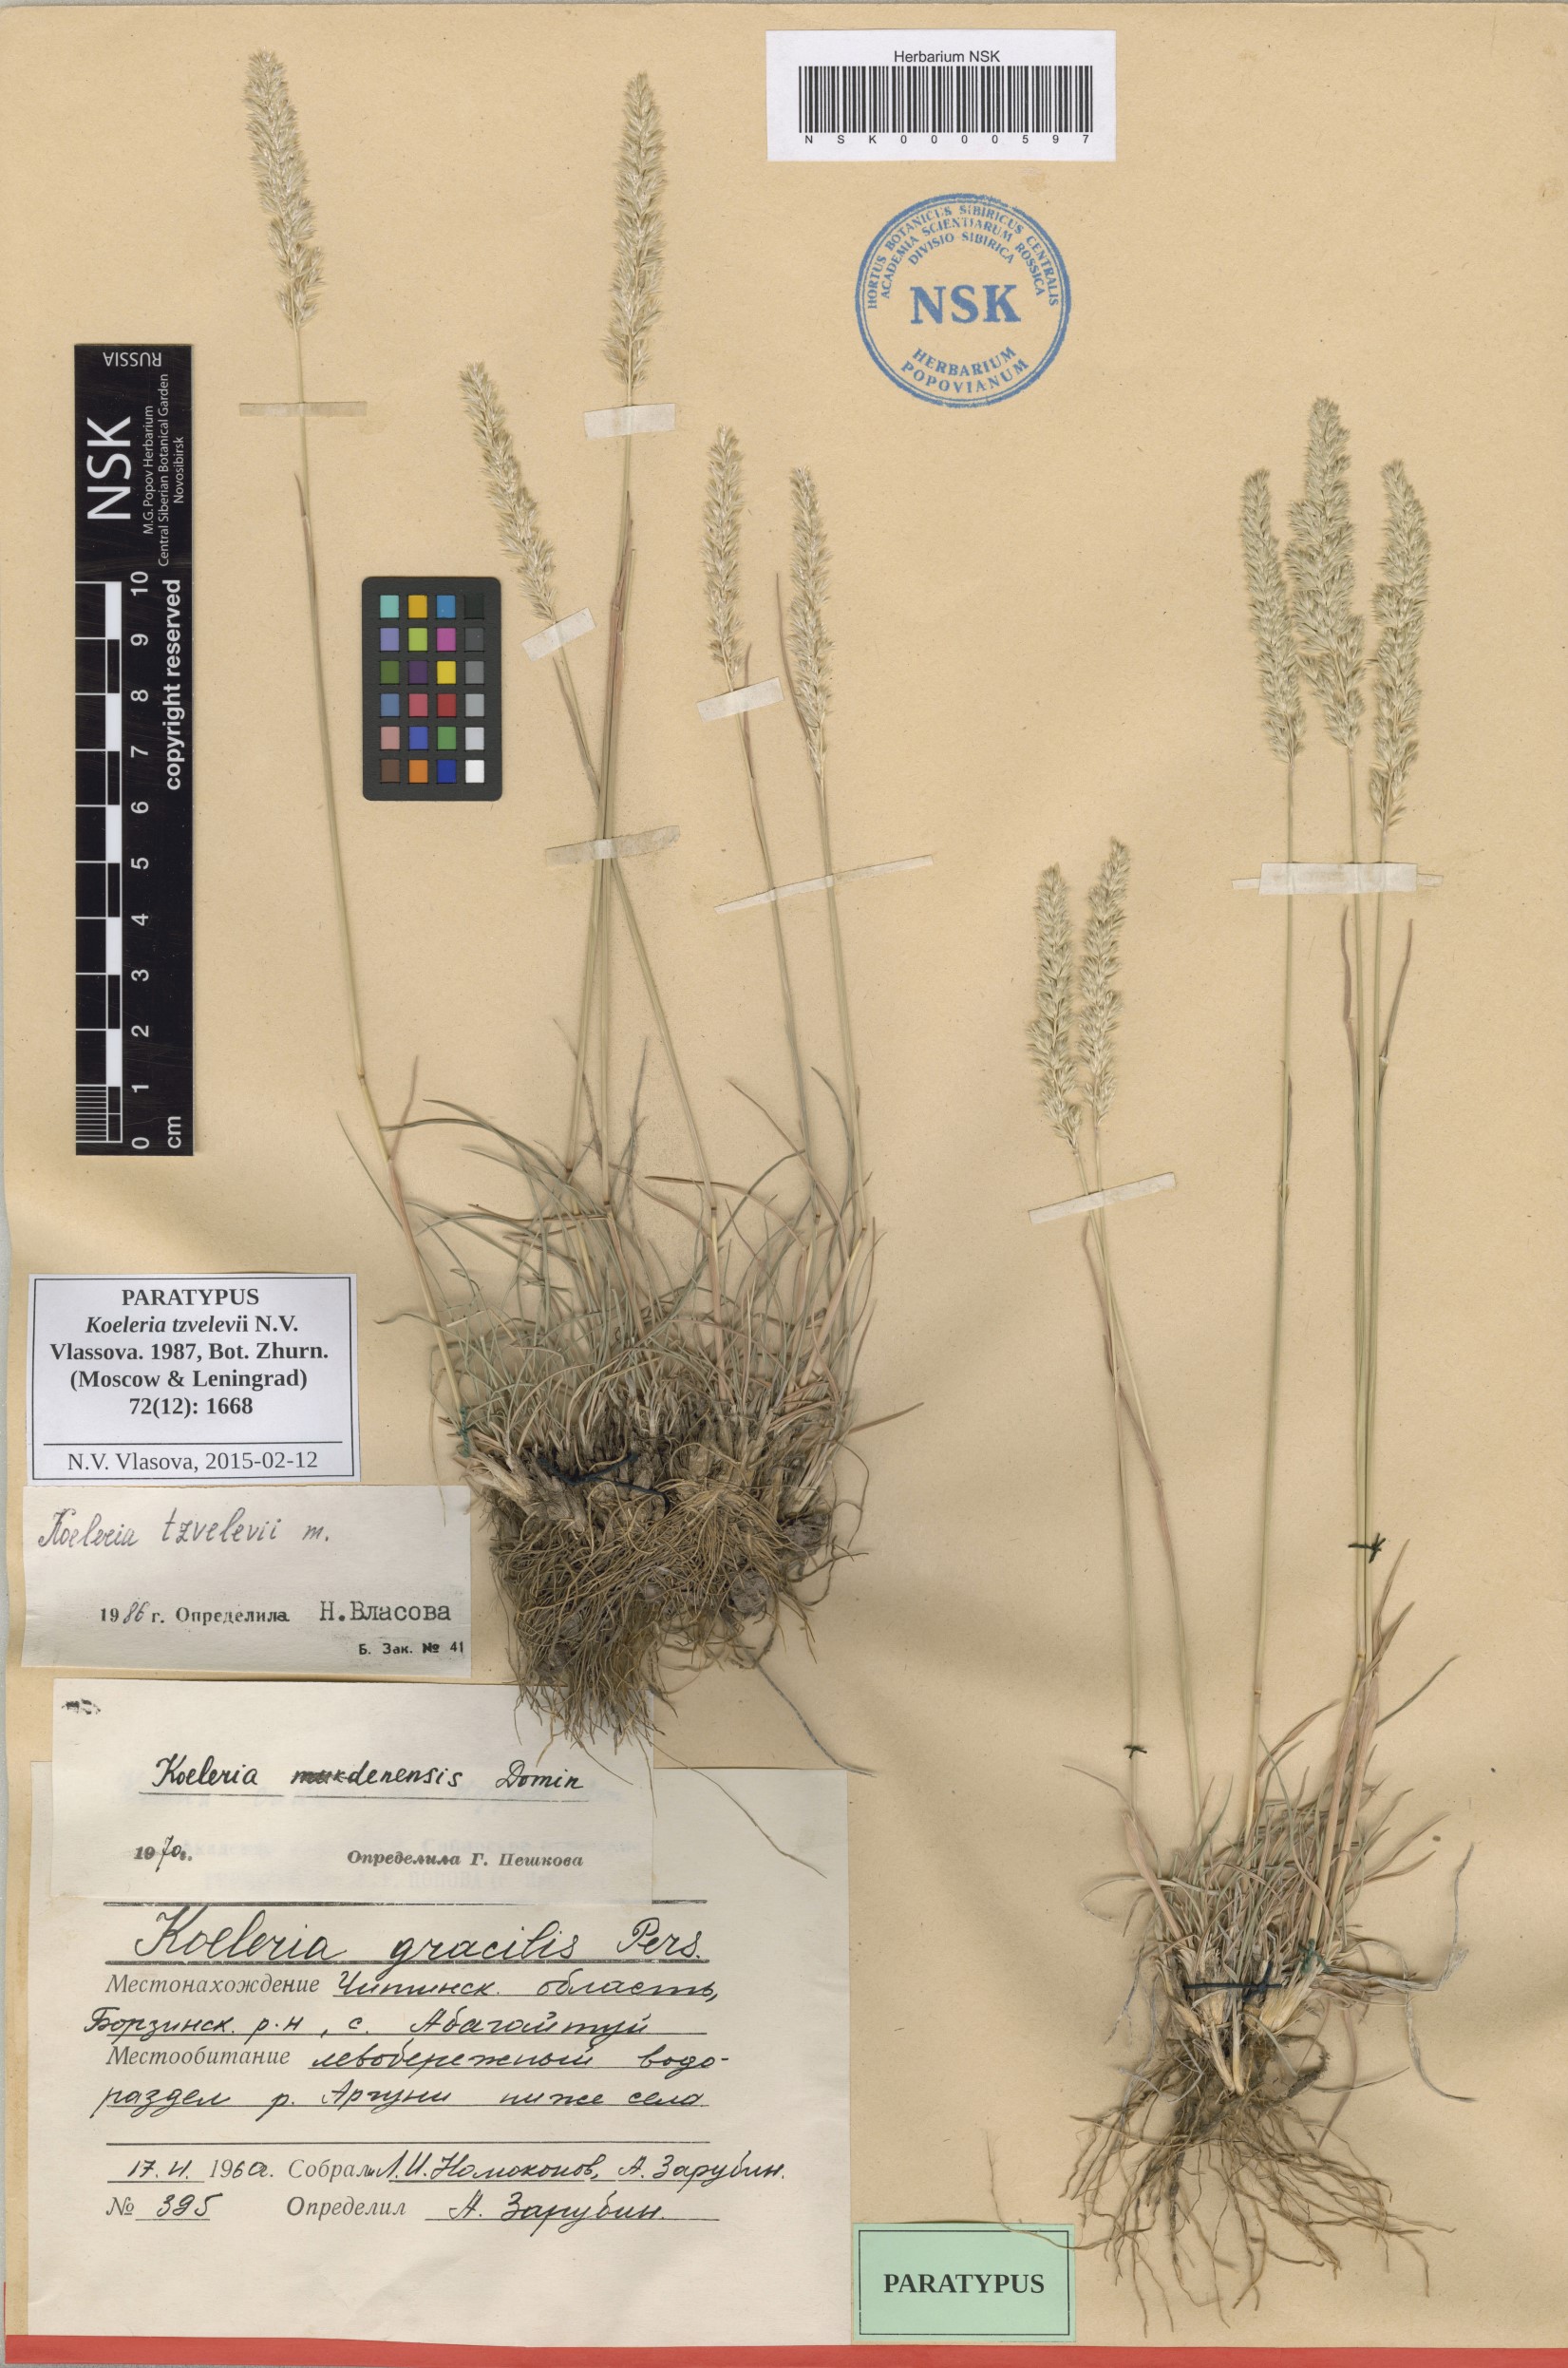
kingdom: Plantae
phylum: Tracheophyta
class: Liliopsida
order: Poales
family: Poaceae
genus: Koeleria
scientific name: Koeleria tzvelevii
